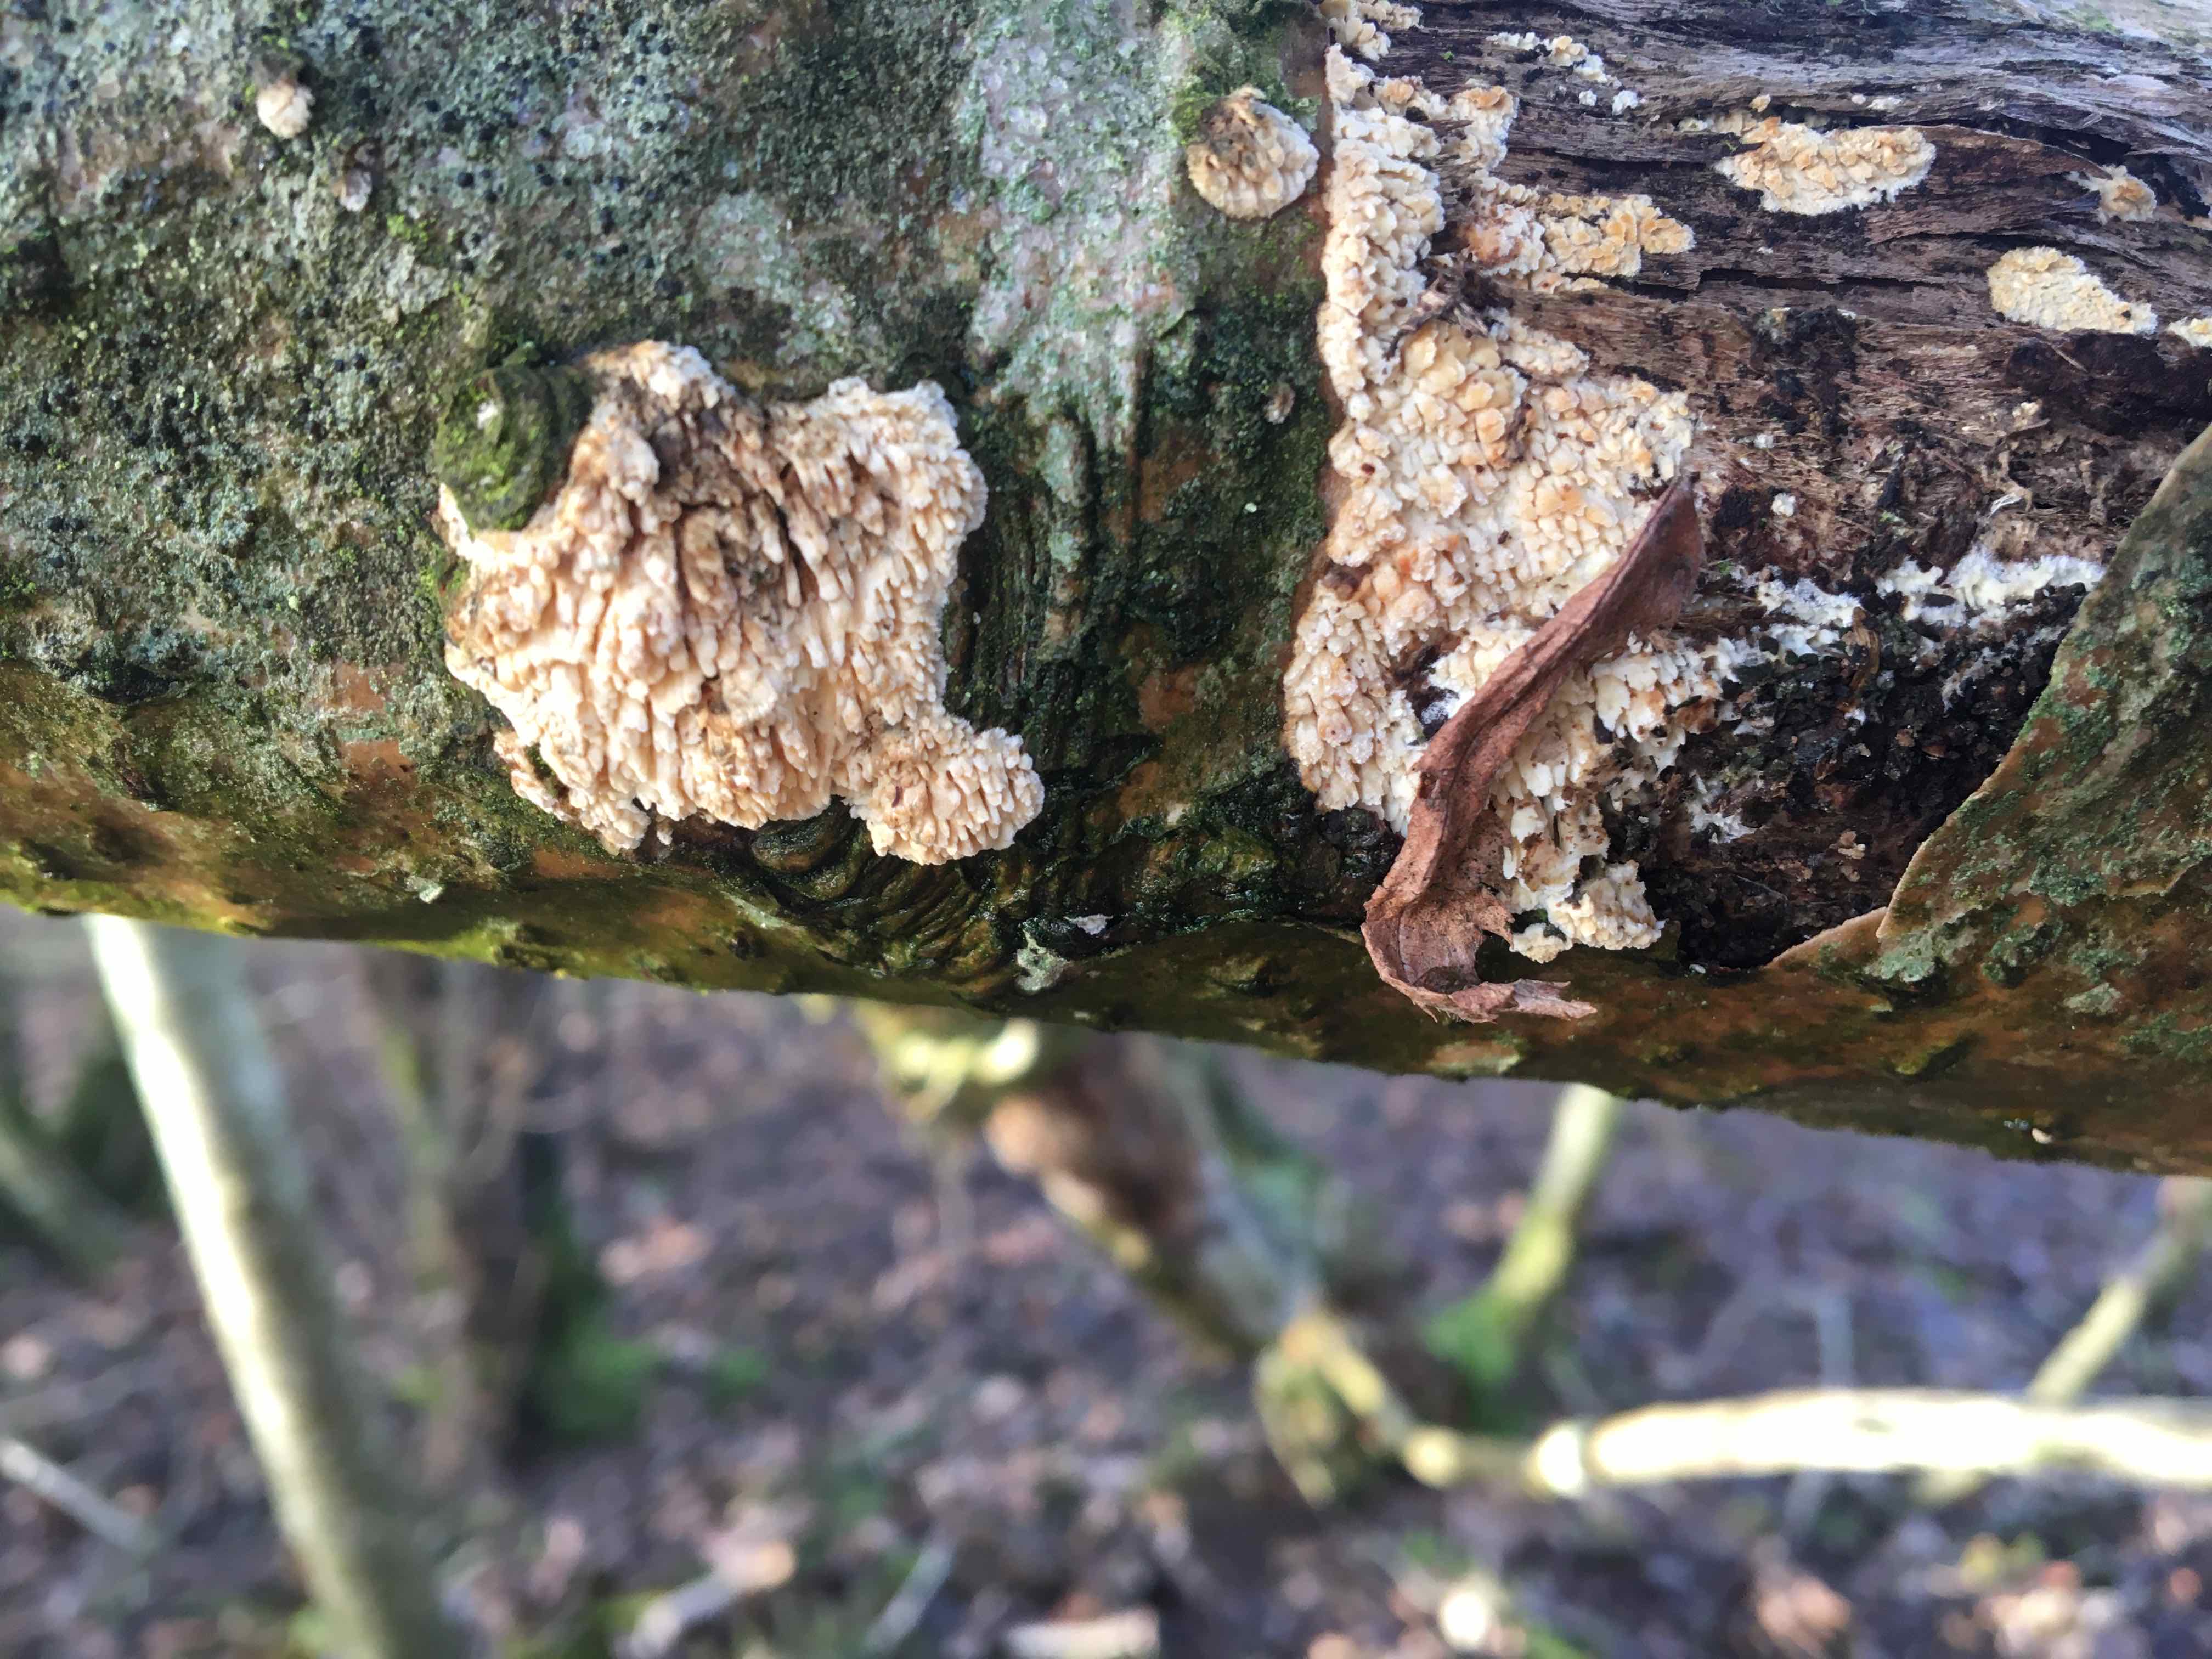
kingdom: Fungi
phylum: Basidiomycota
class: Agaricomycetes
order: Hymenochaetales
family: Schizoporaceae
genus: Xylodon
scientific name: Xylodon radula
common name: grovtandet kalkskind
